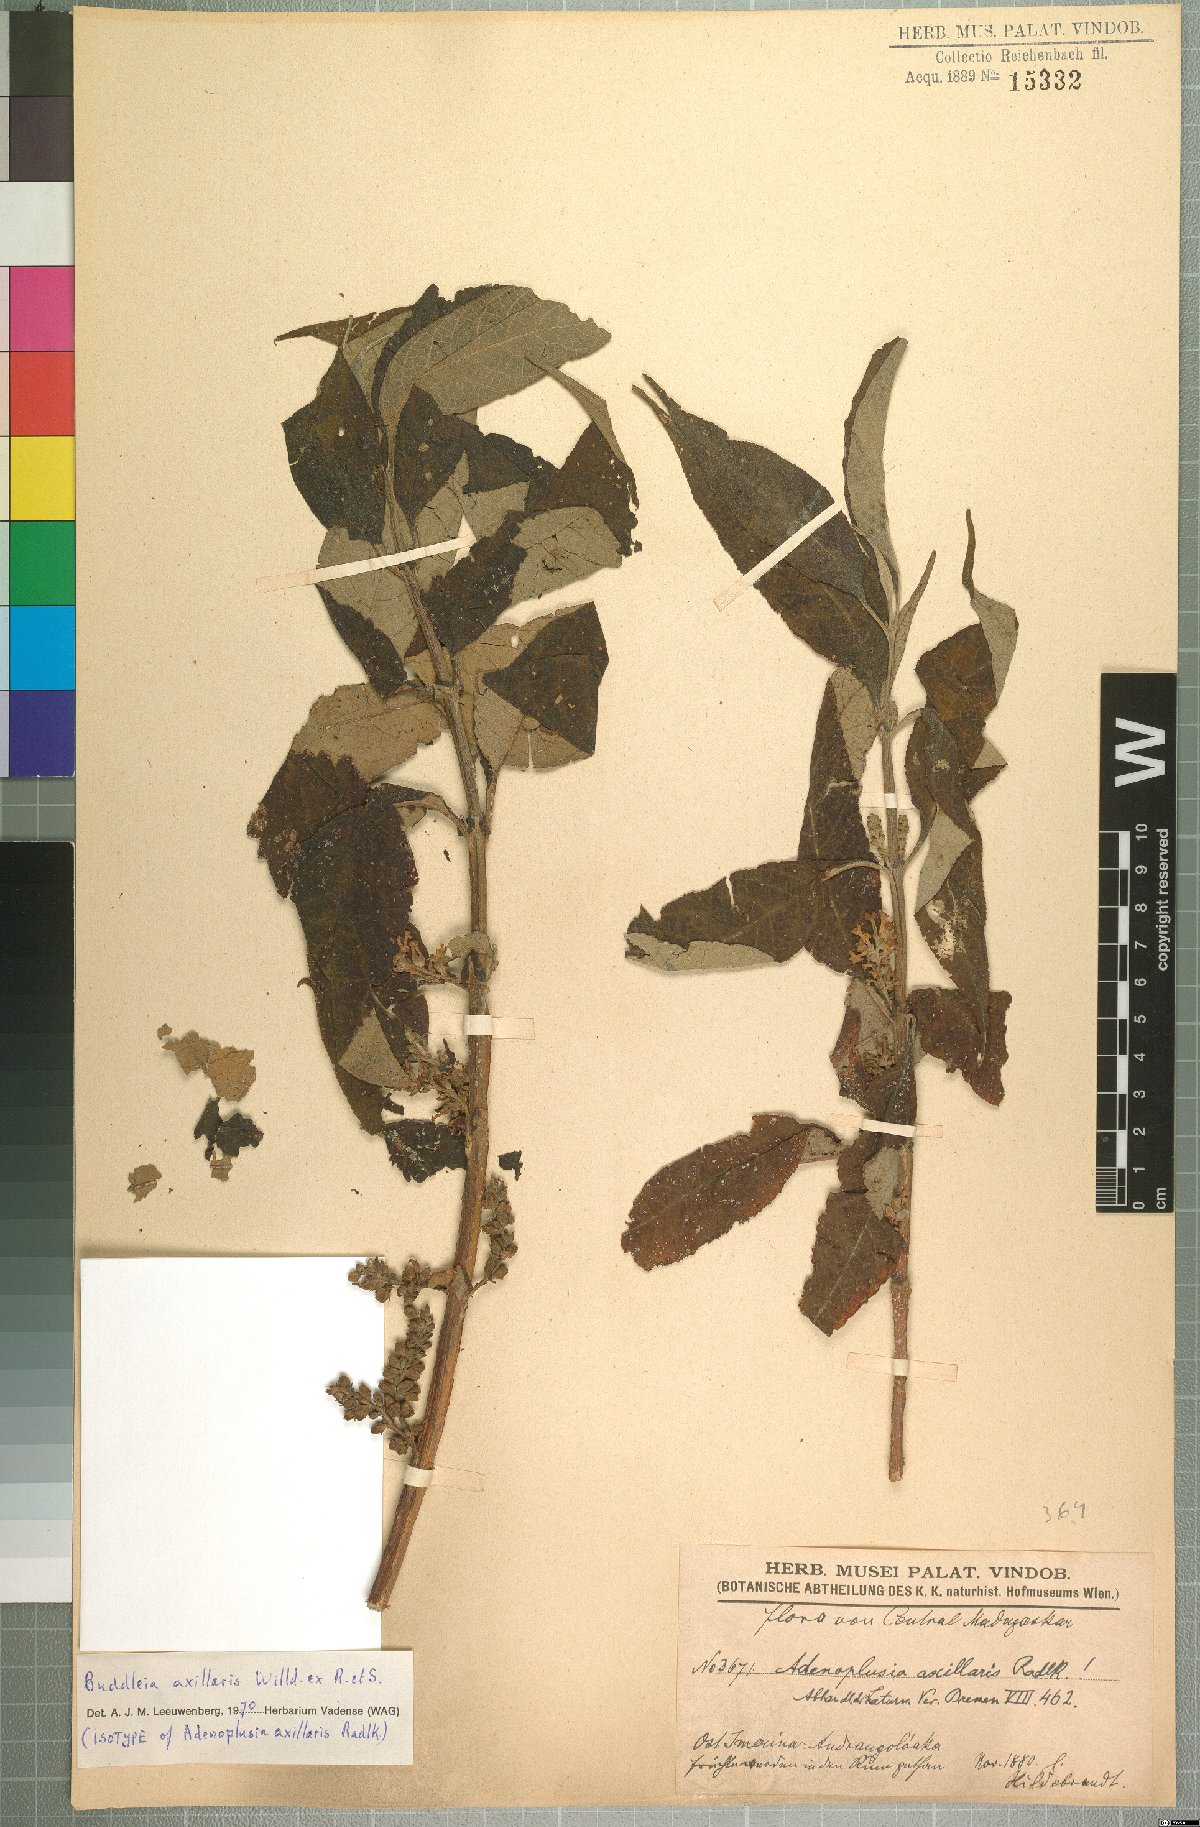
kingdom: Plantae
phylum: Tracheophyta
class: Magnoliopsida
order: Lamiales
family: Scrophulariaceae
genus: Buddleja
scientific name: Buddleja axillaris
